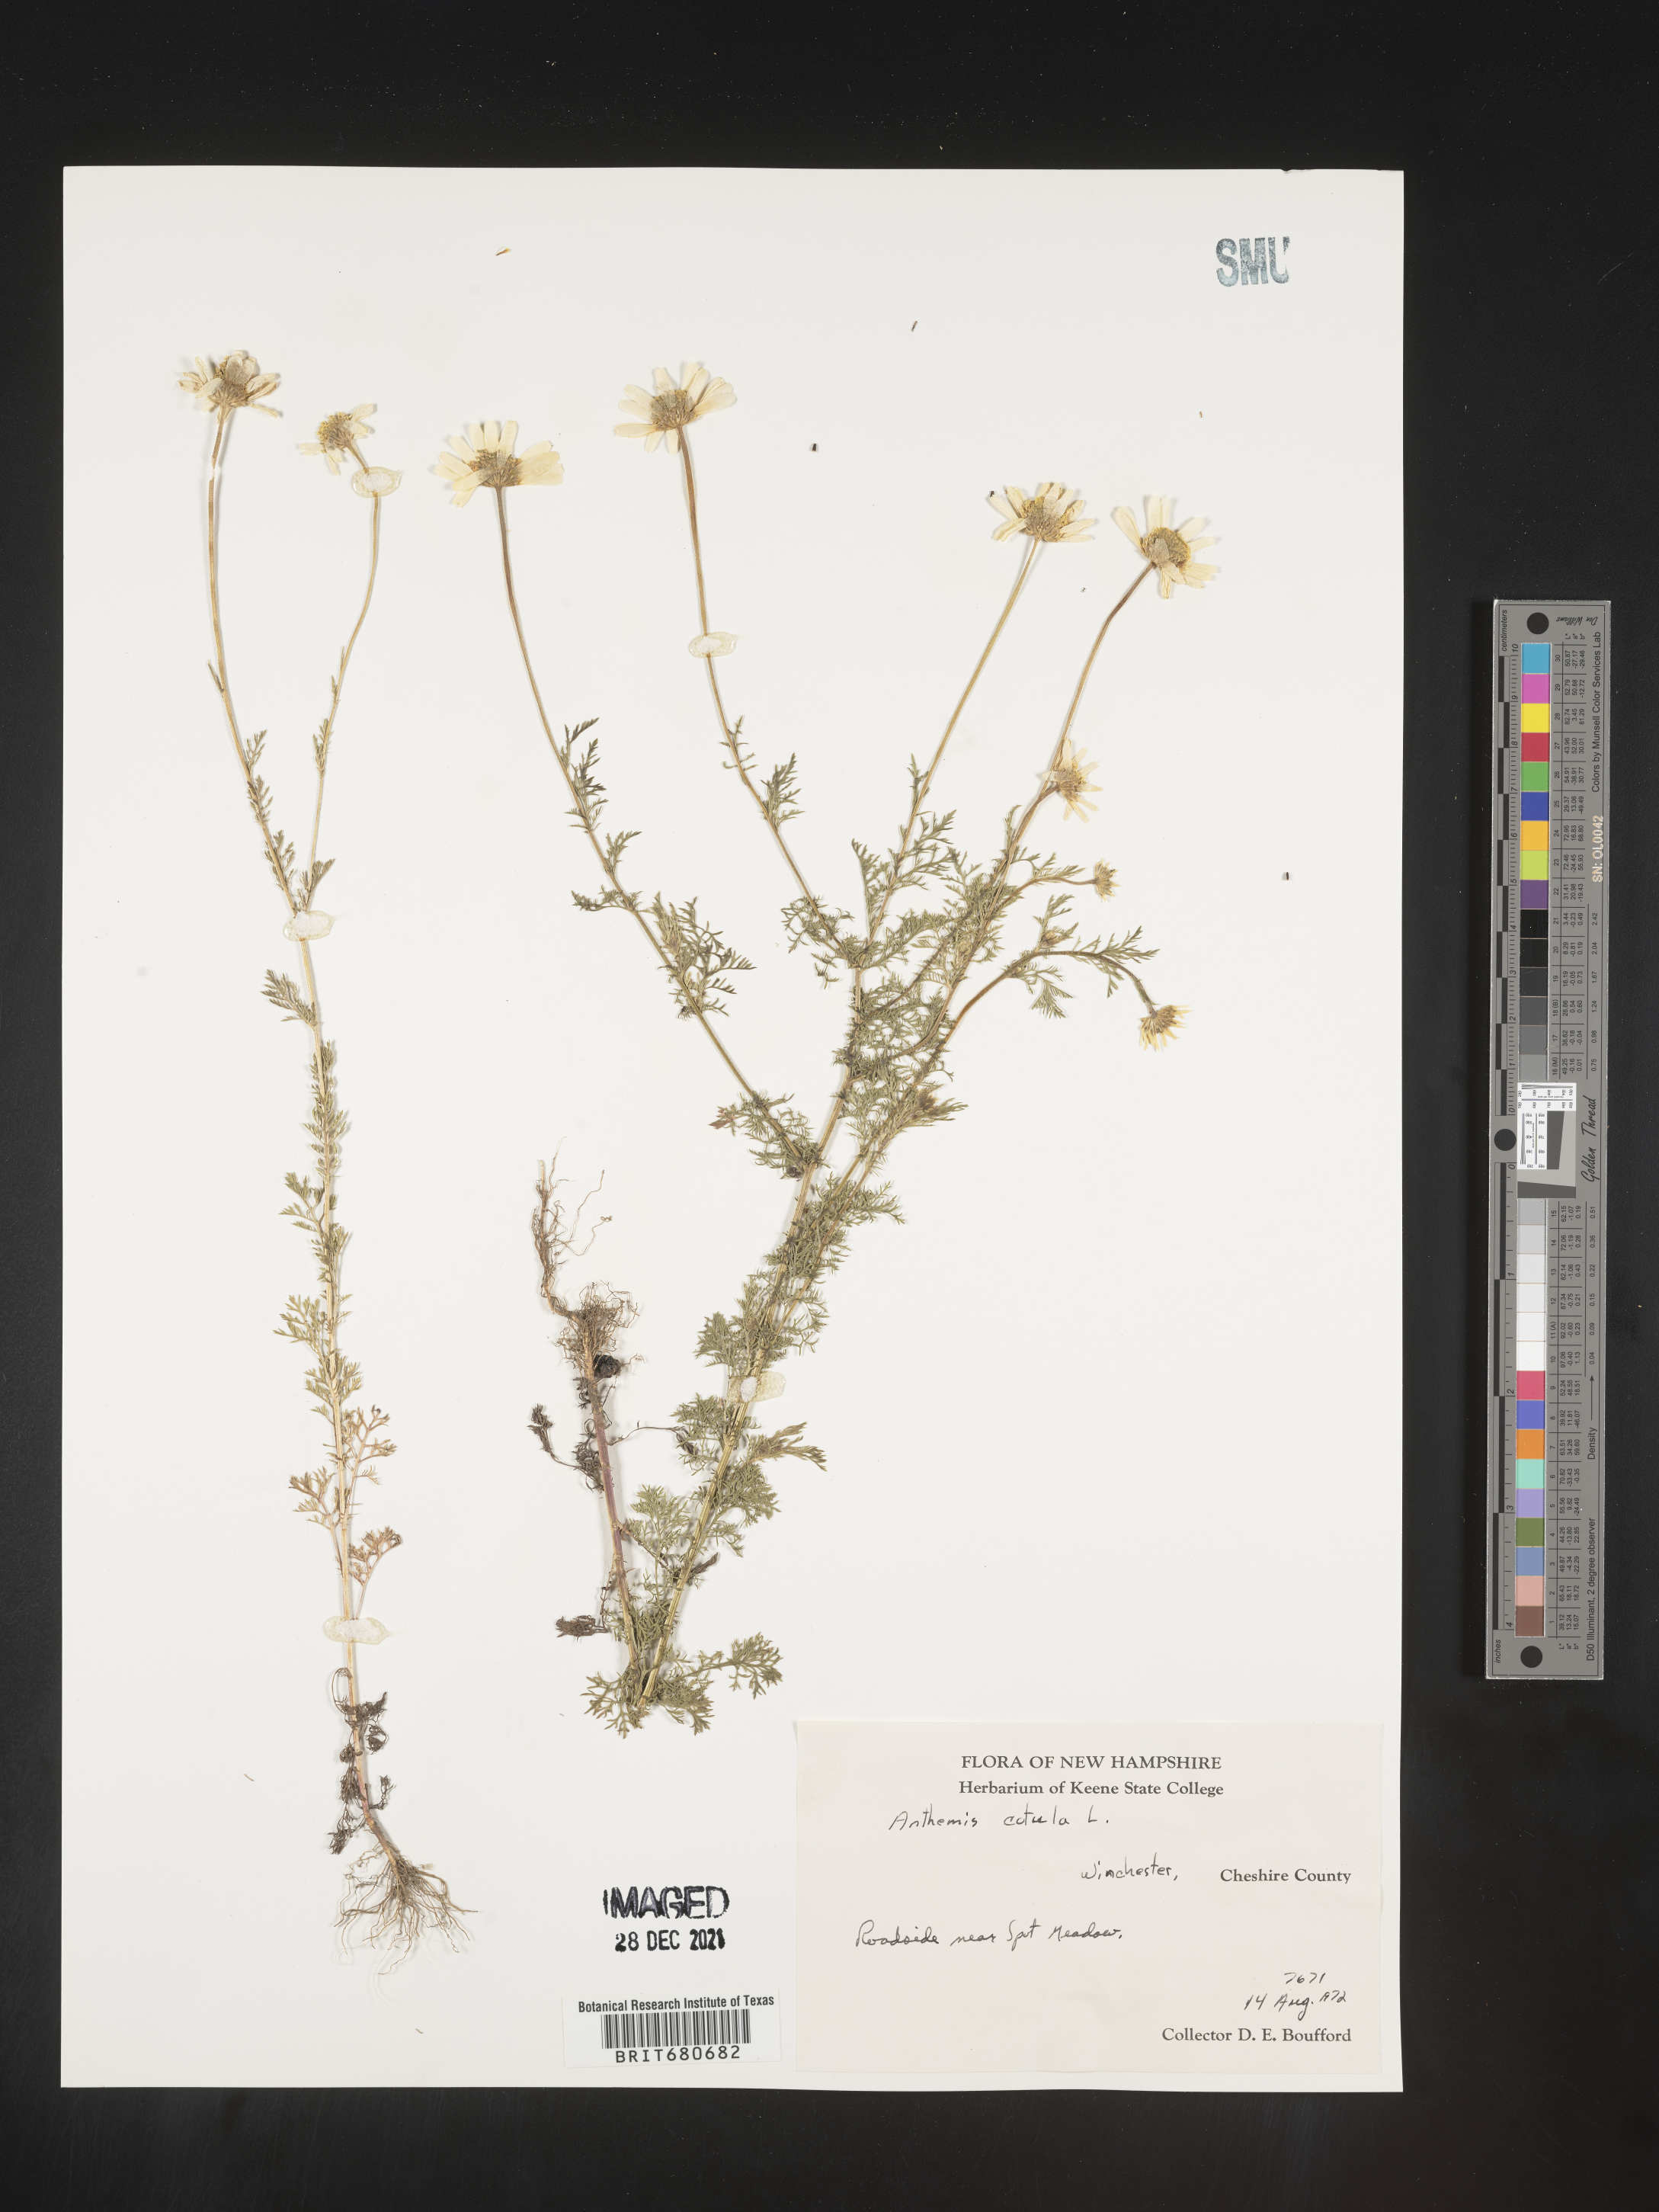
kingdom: Plantae
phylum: Tracheophyta
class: Magnoliopsida
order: Asterales
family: Asteraceae
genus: Anthemis
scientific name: Anthemis cotula
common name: Stinking chamomile
